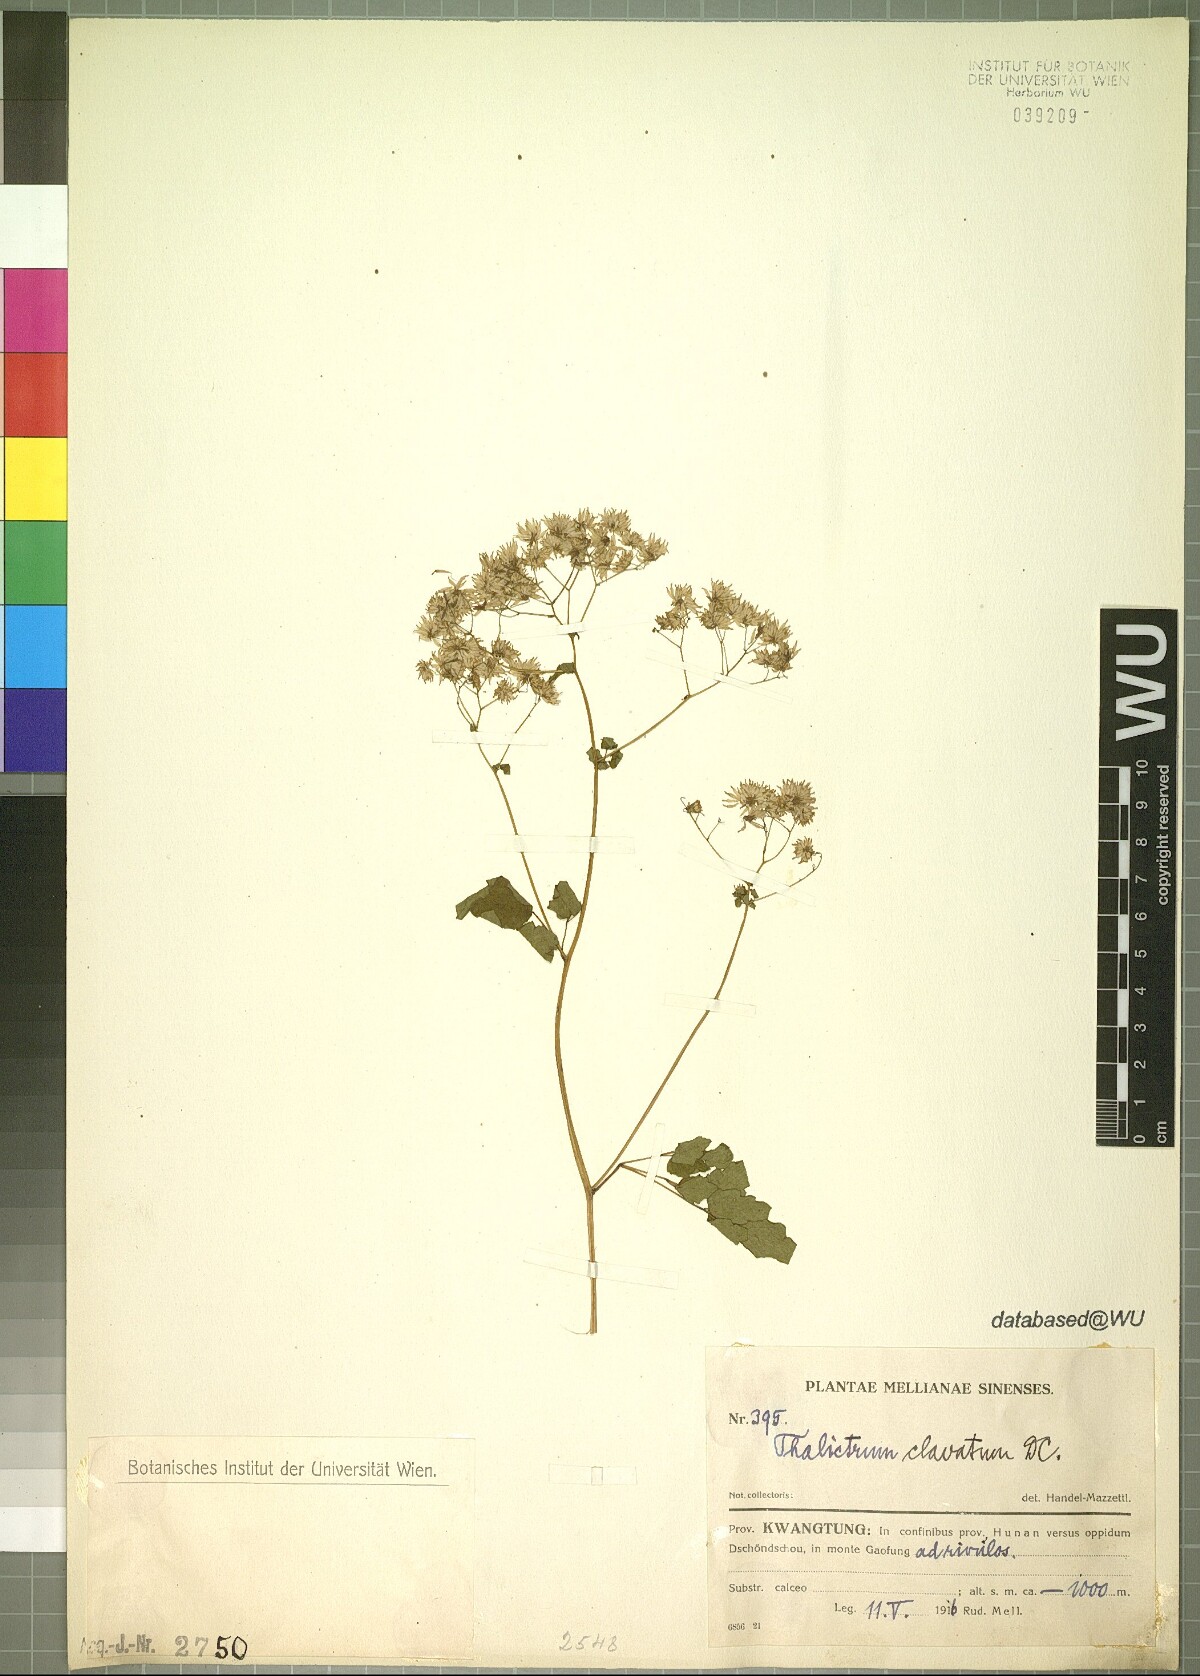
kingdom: Plantae
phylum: Tracheophyta
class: Magnoliopsida
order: Ranunculales
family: Ranunculaceae
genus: Thalictrum
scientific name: Thalictrum clavatum
